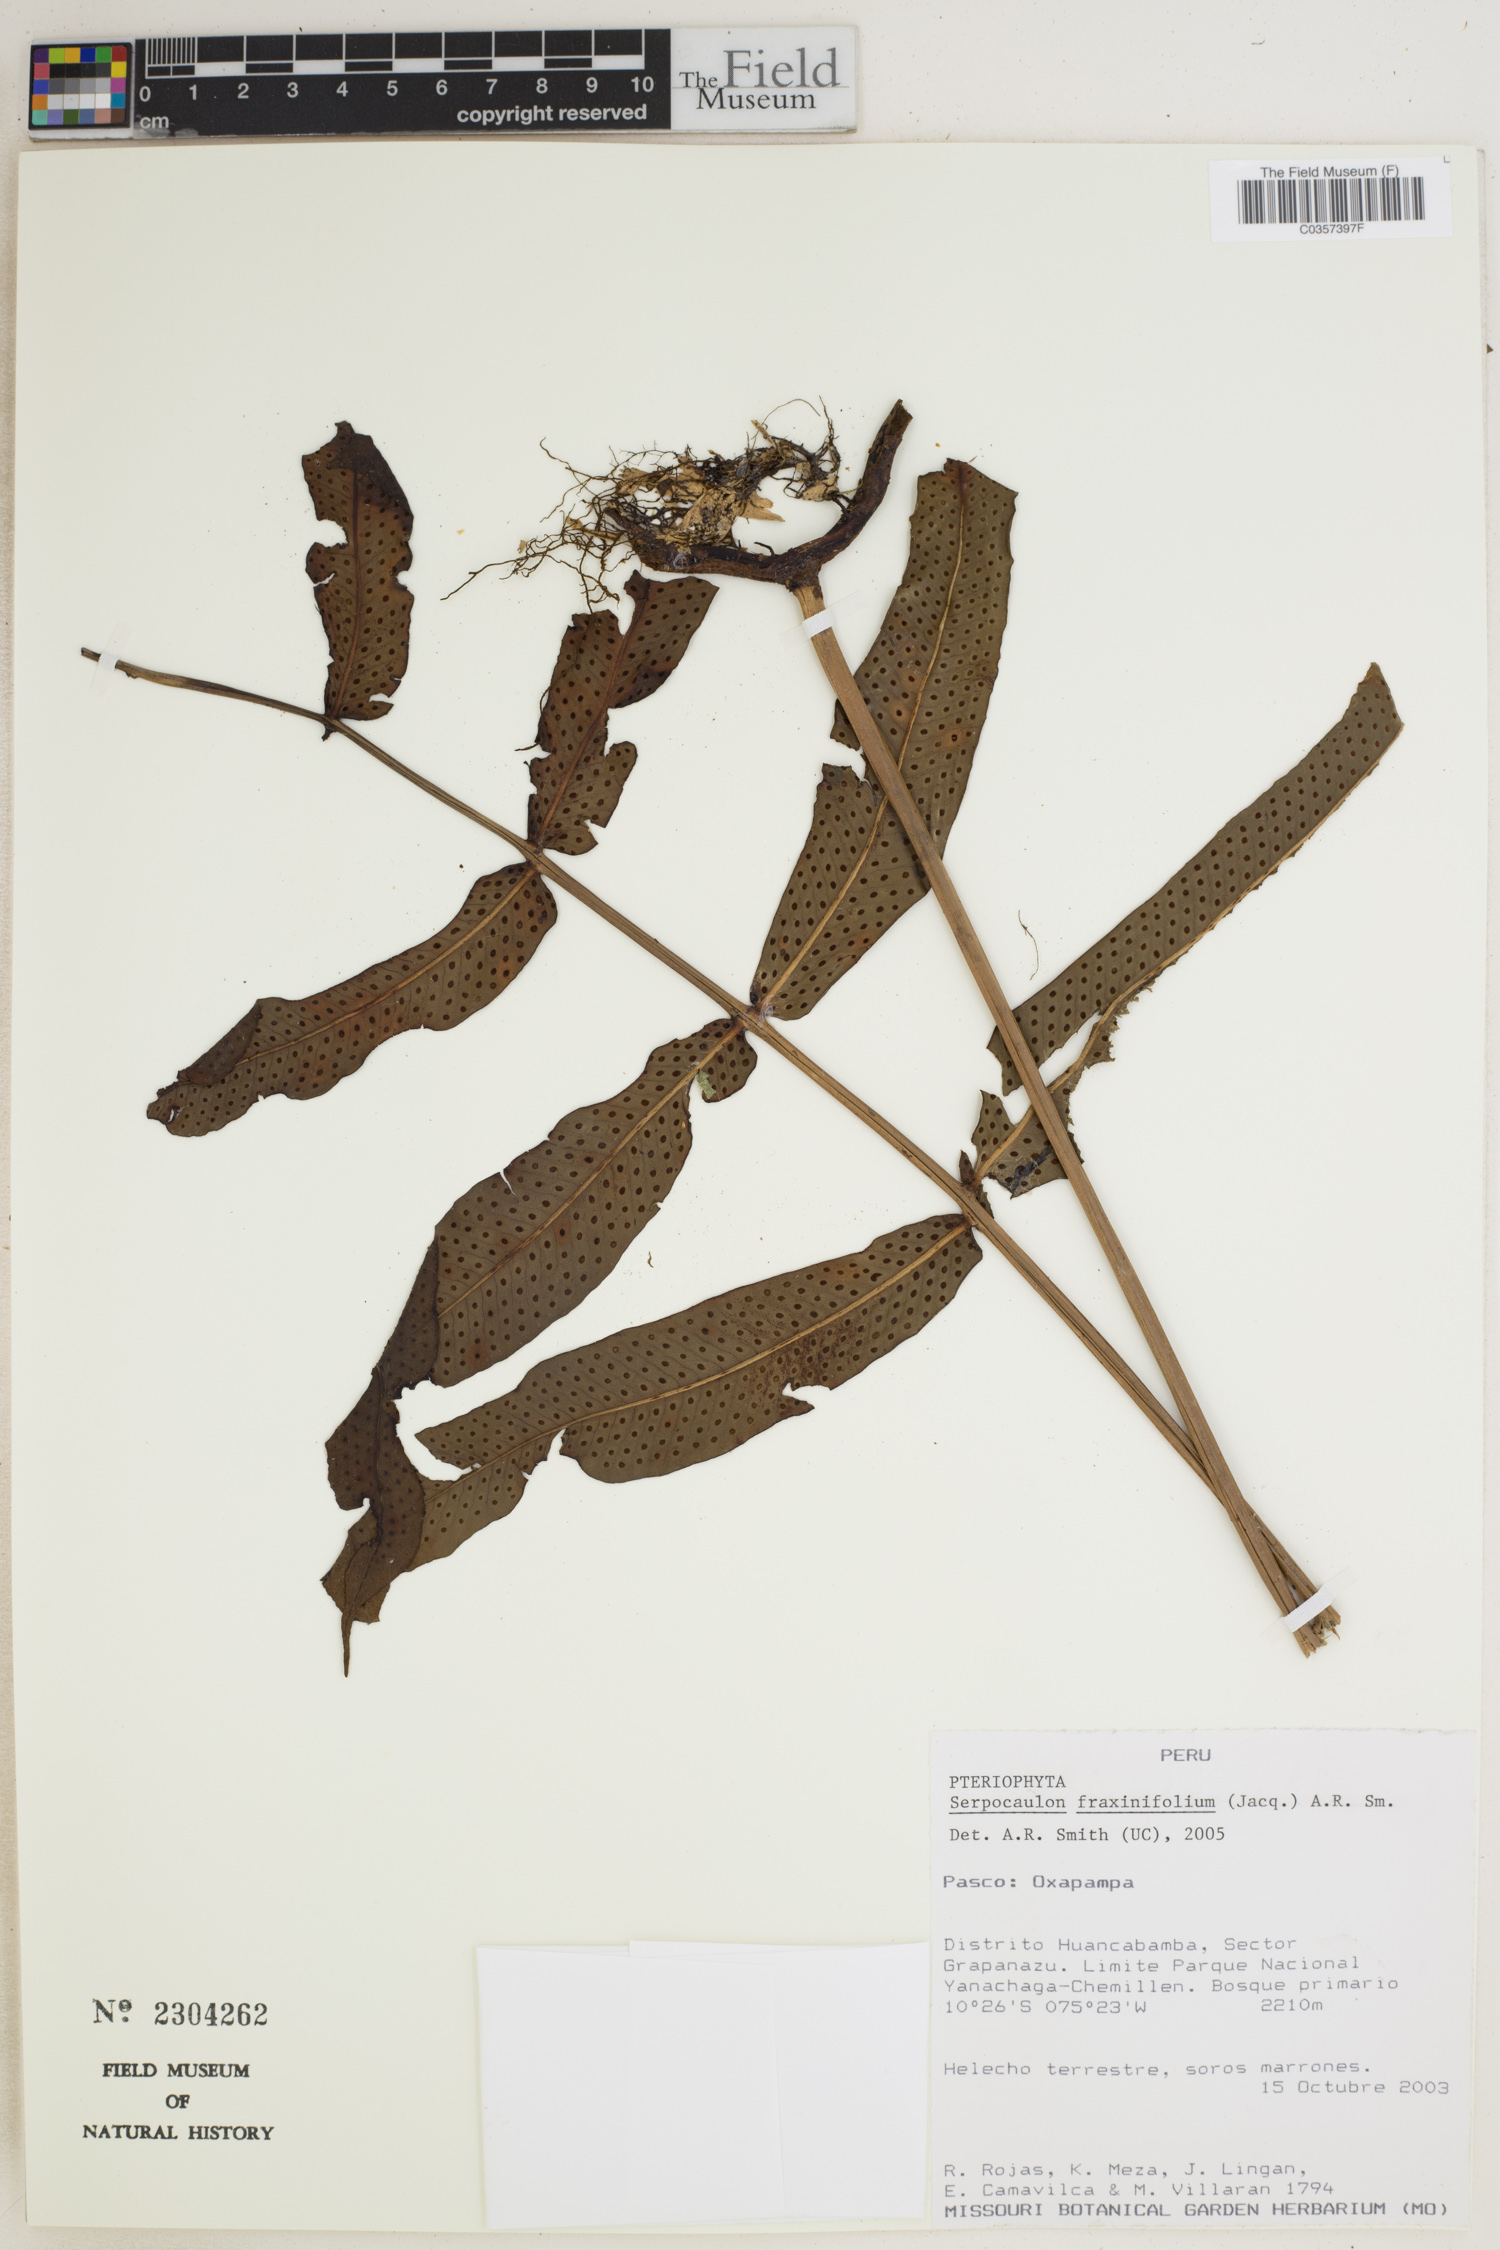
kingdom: Plantae
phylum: Tracheophyta
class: Polypodiopsida
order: Polypodiales
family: Polypodiaceae
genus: Serpocaulon
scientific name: Serpocaulon fraxinifolium
